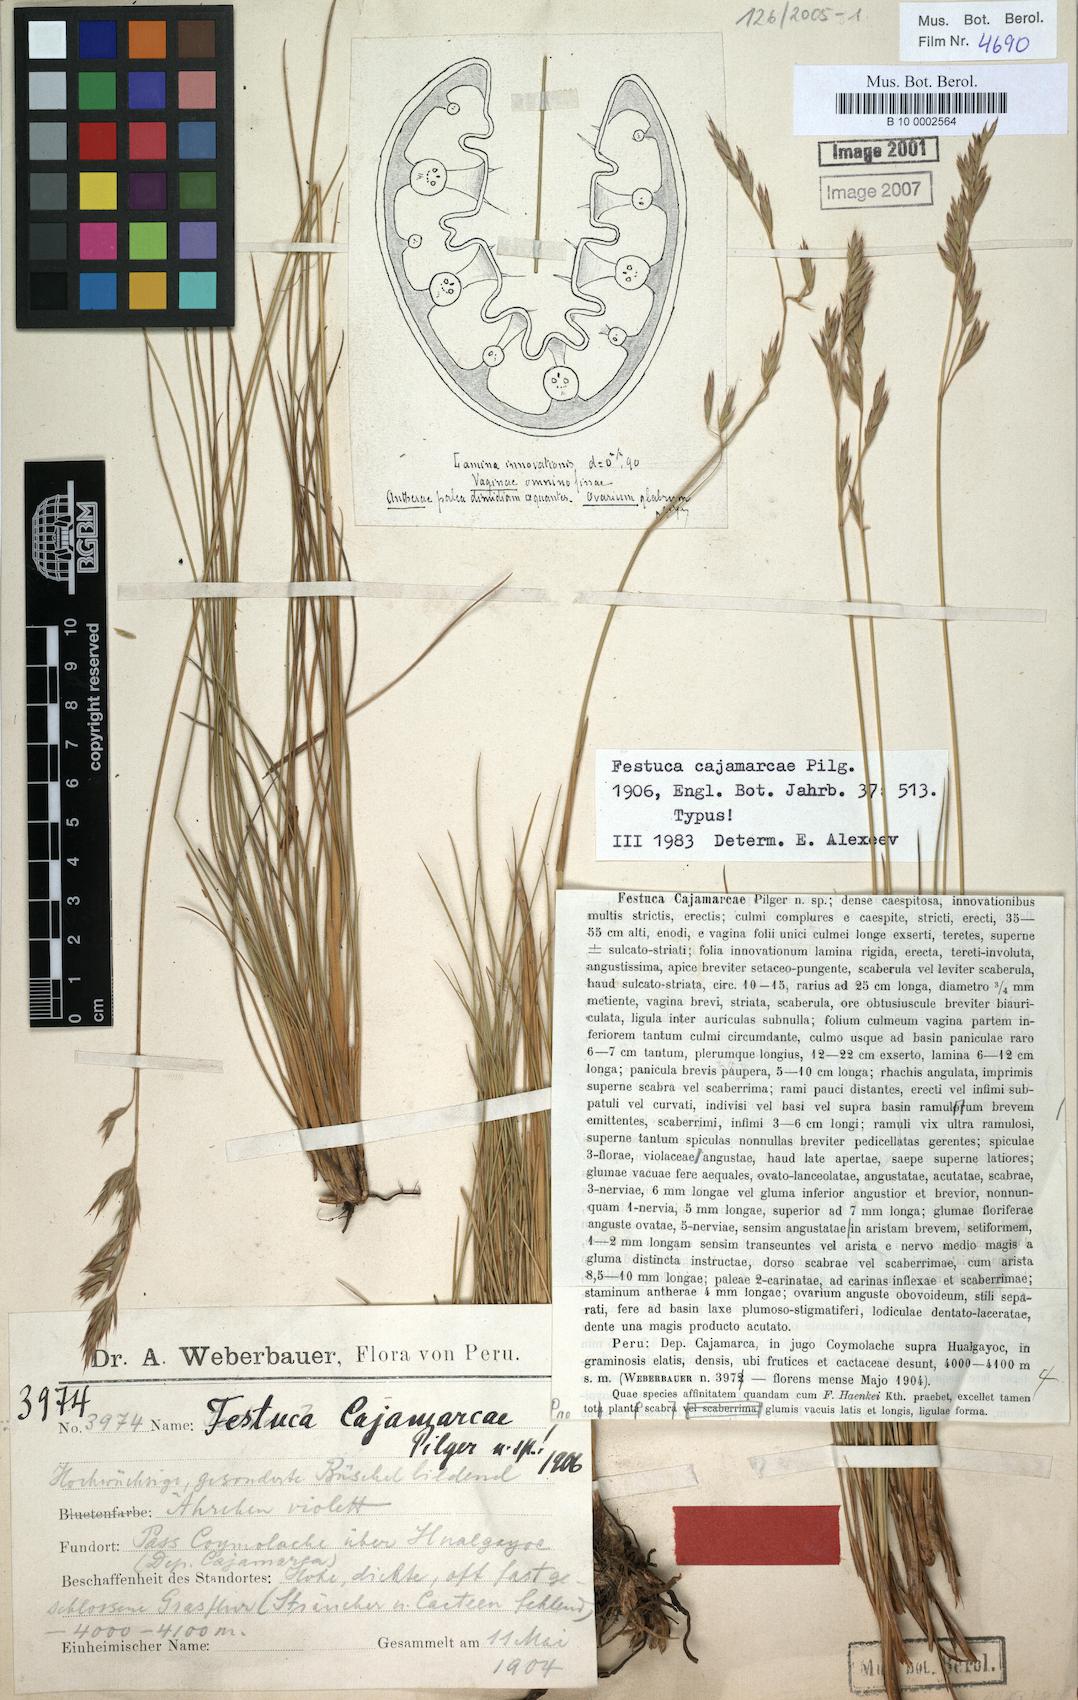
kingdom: Plantae
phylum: Tracheophyta
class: Liliopsida
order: Poales
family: Poaceae
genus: Festuca
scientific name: Festuca
